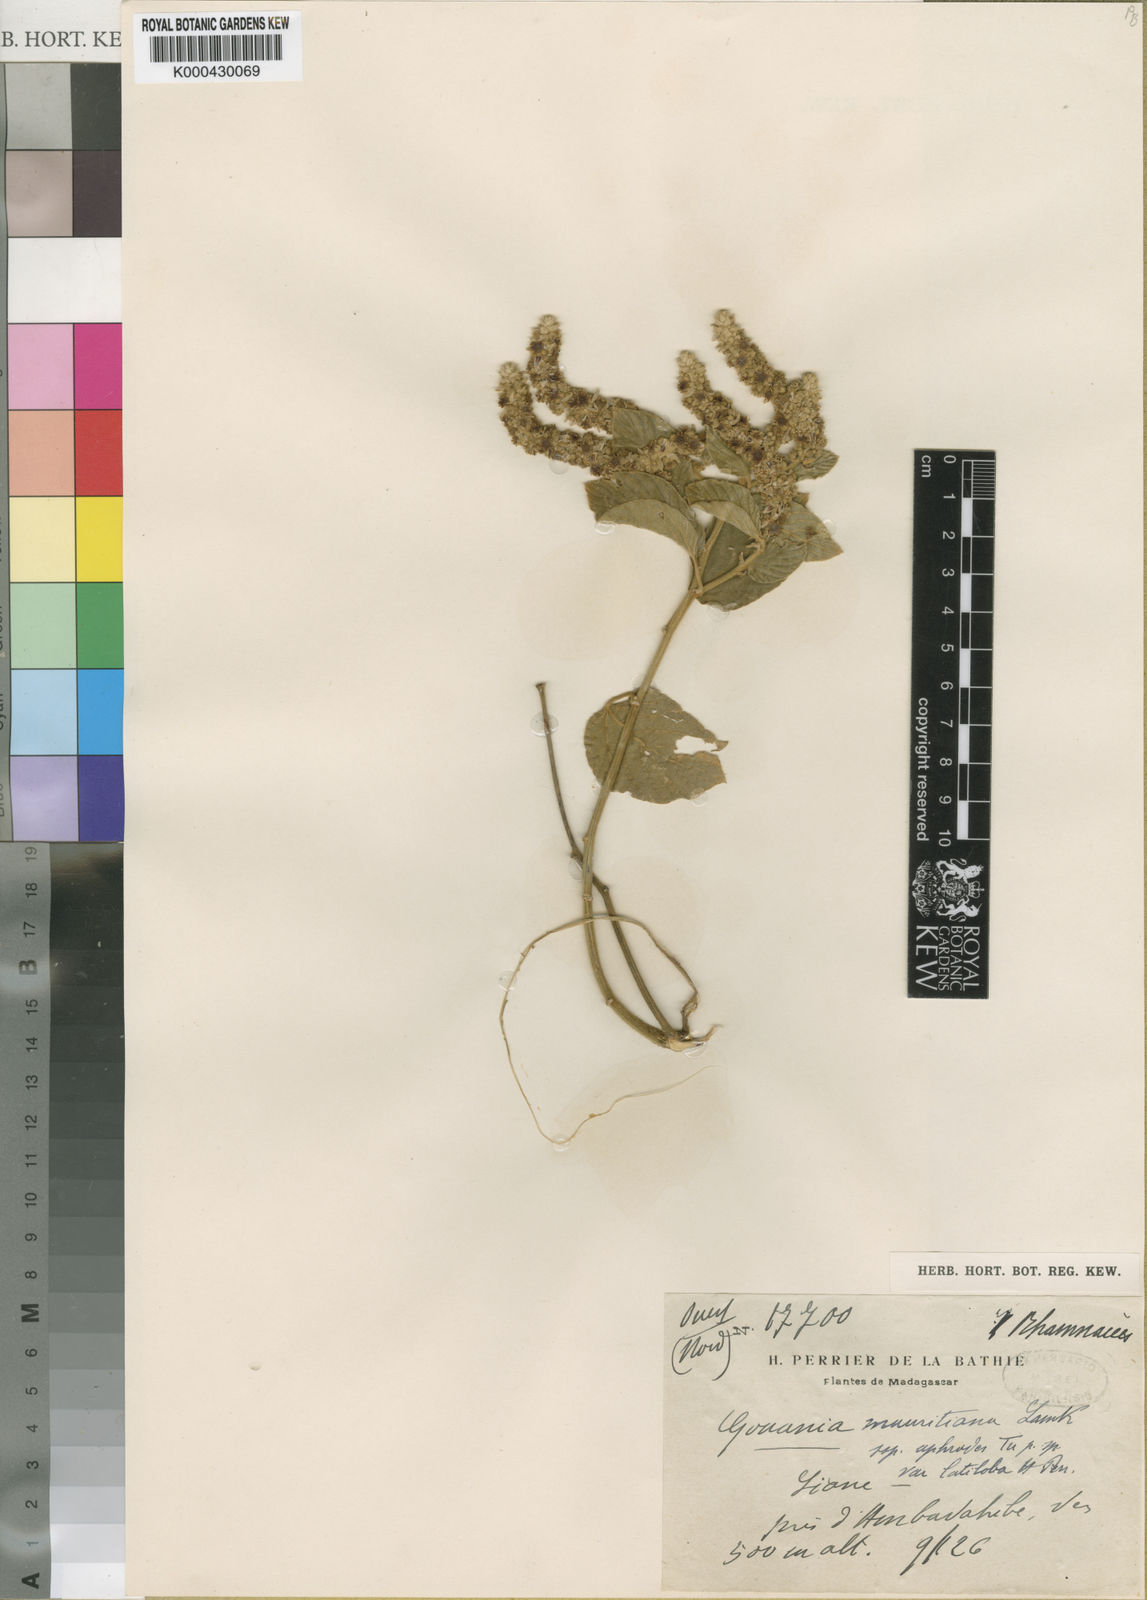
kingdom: Plantae
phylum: Tracheophyta
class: Magnoliopsida
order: Rosales
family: Rhamnaceae
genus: Gouania
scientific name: Gouania mauritiana
